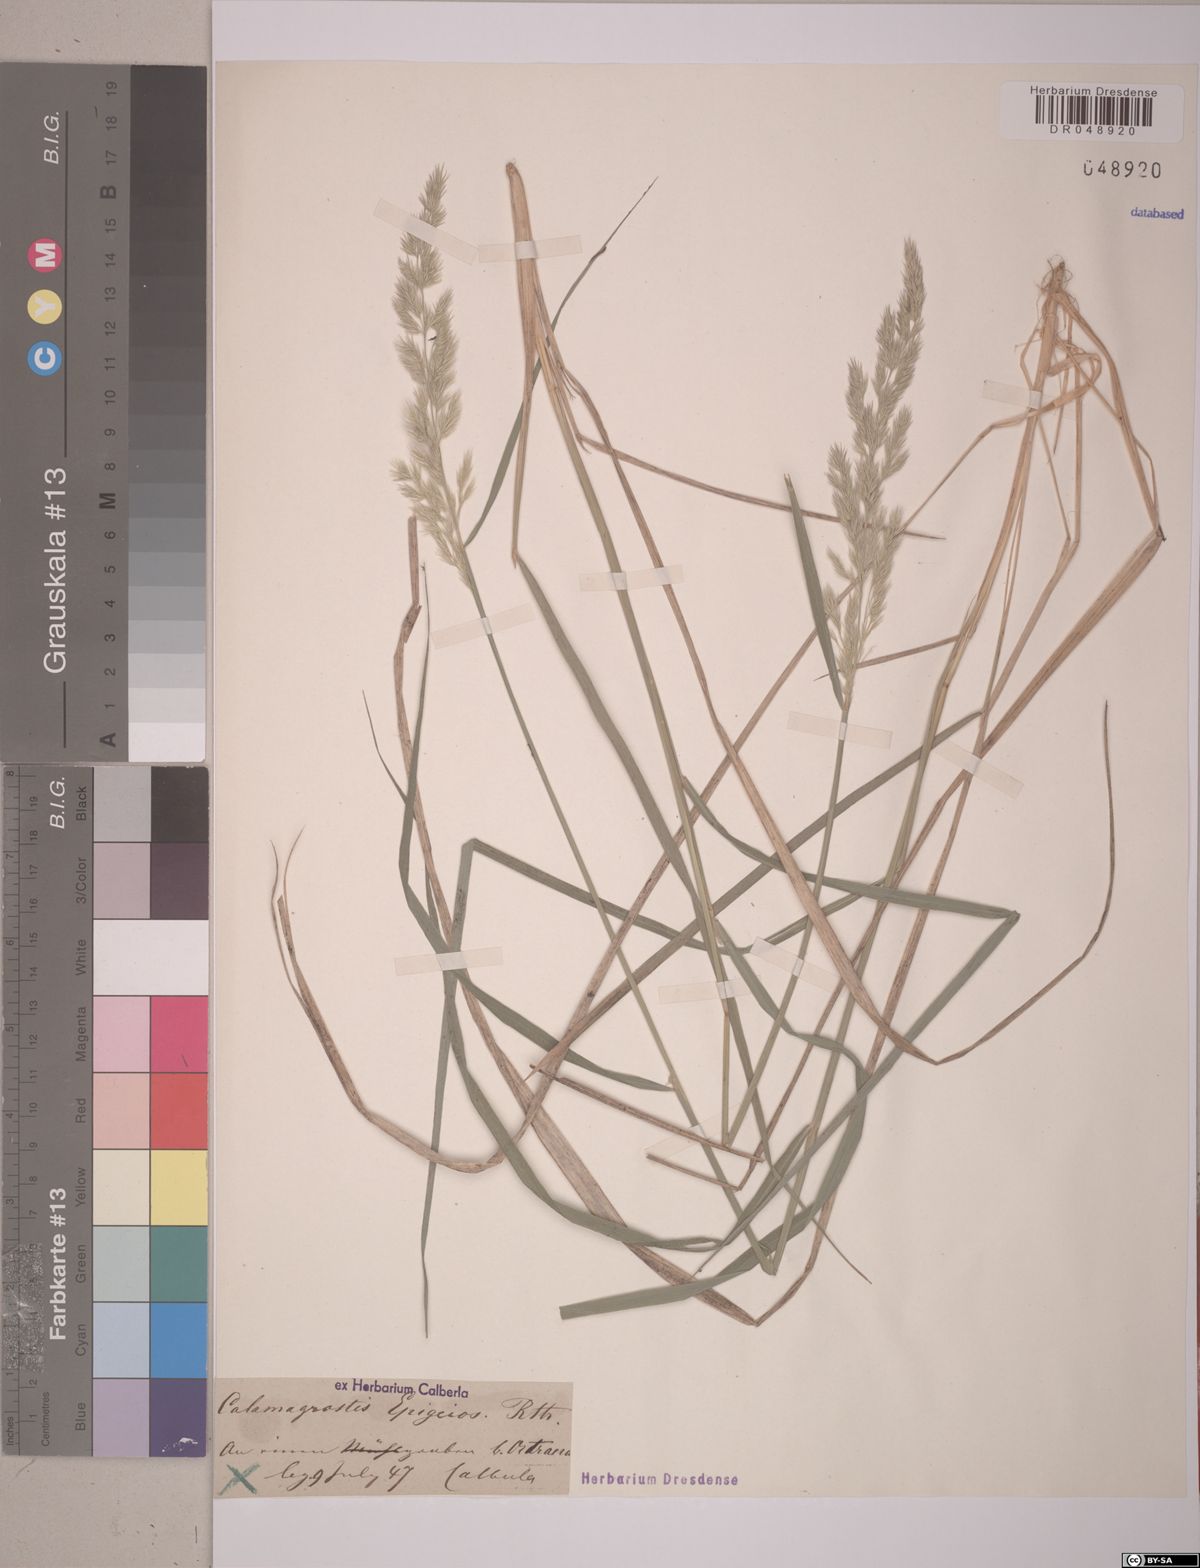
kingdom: Plantae
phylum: Tracheophyta
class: Liliopsida
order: Poales
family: Poaceae
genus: Calamagrostis
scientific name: Calamagrostis epigejos
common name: Wood small-reed
